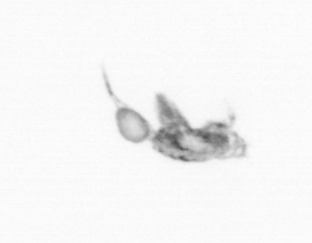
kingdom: Animalia
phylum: Arthropoda
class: Copepoda
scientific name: Copepoda
